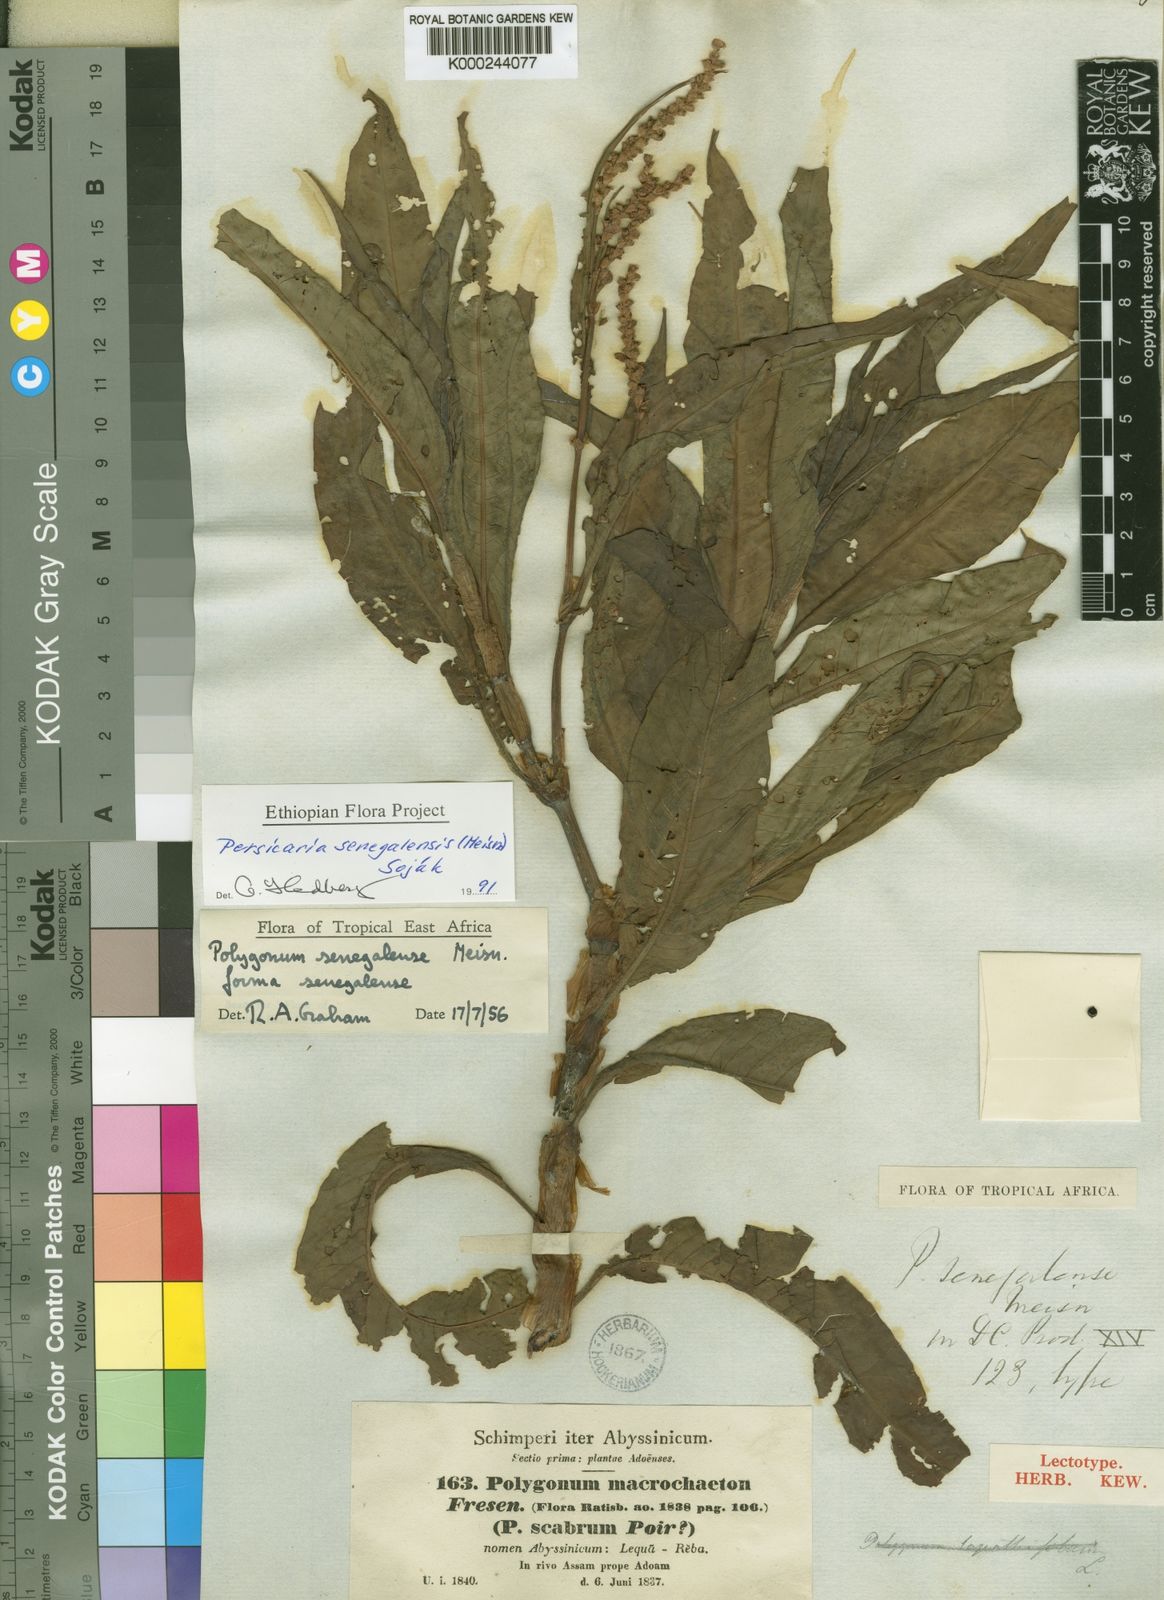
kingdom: Plantae
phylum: Tracheophyta
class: Magnoliopsida
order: Caryophyllales
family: Polygonaceae
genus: Persicaria
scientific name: Persicaria
